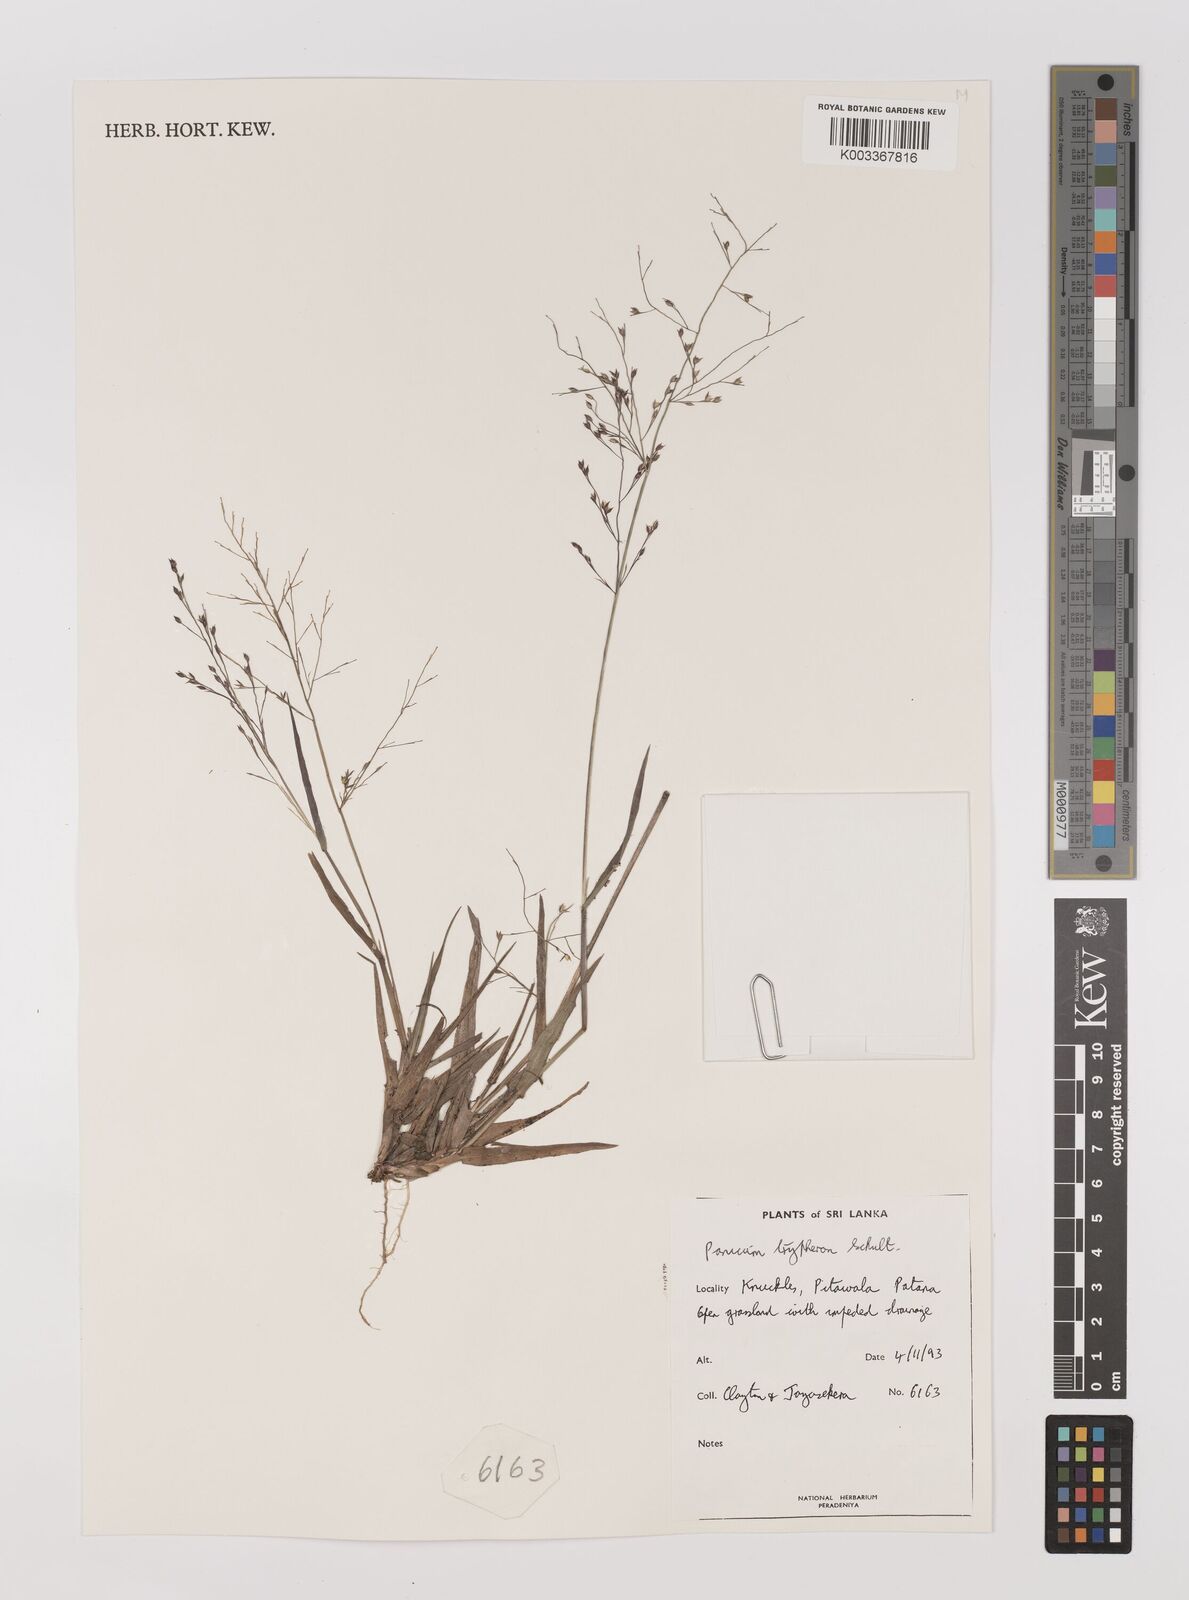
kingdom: Plantae
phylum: Tracheophyta
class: Liliopsida
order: Poales
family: Poaceae
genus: Panicum
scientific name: Panicum curviflorum
